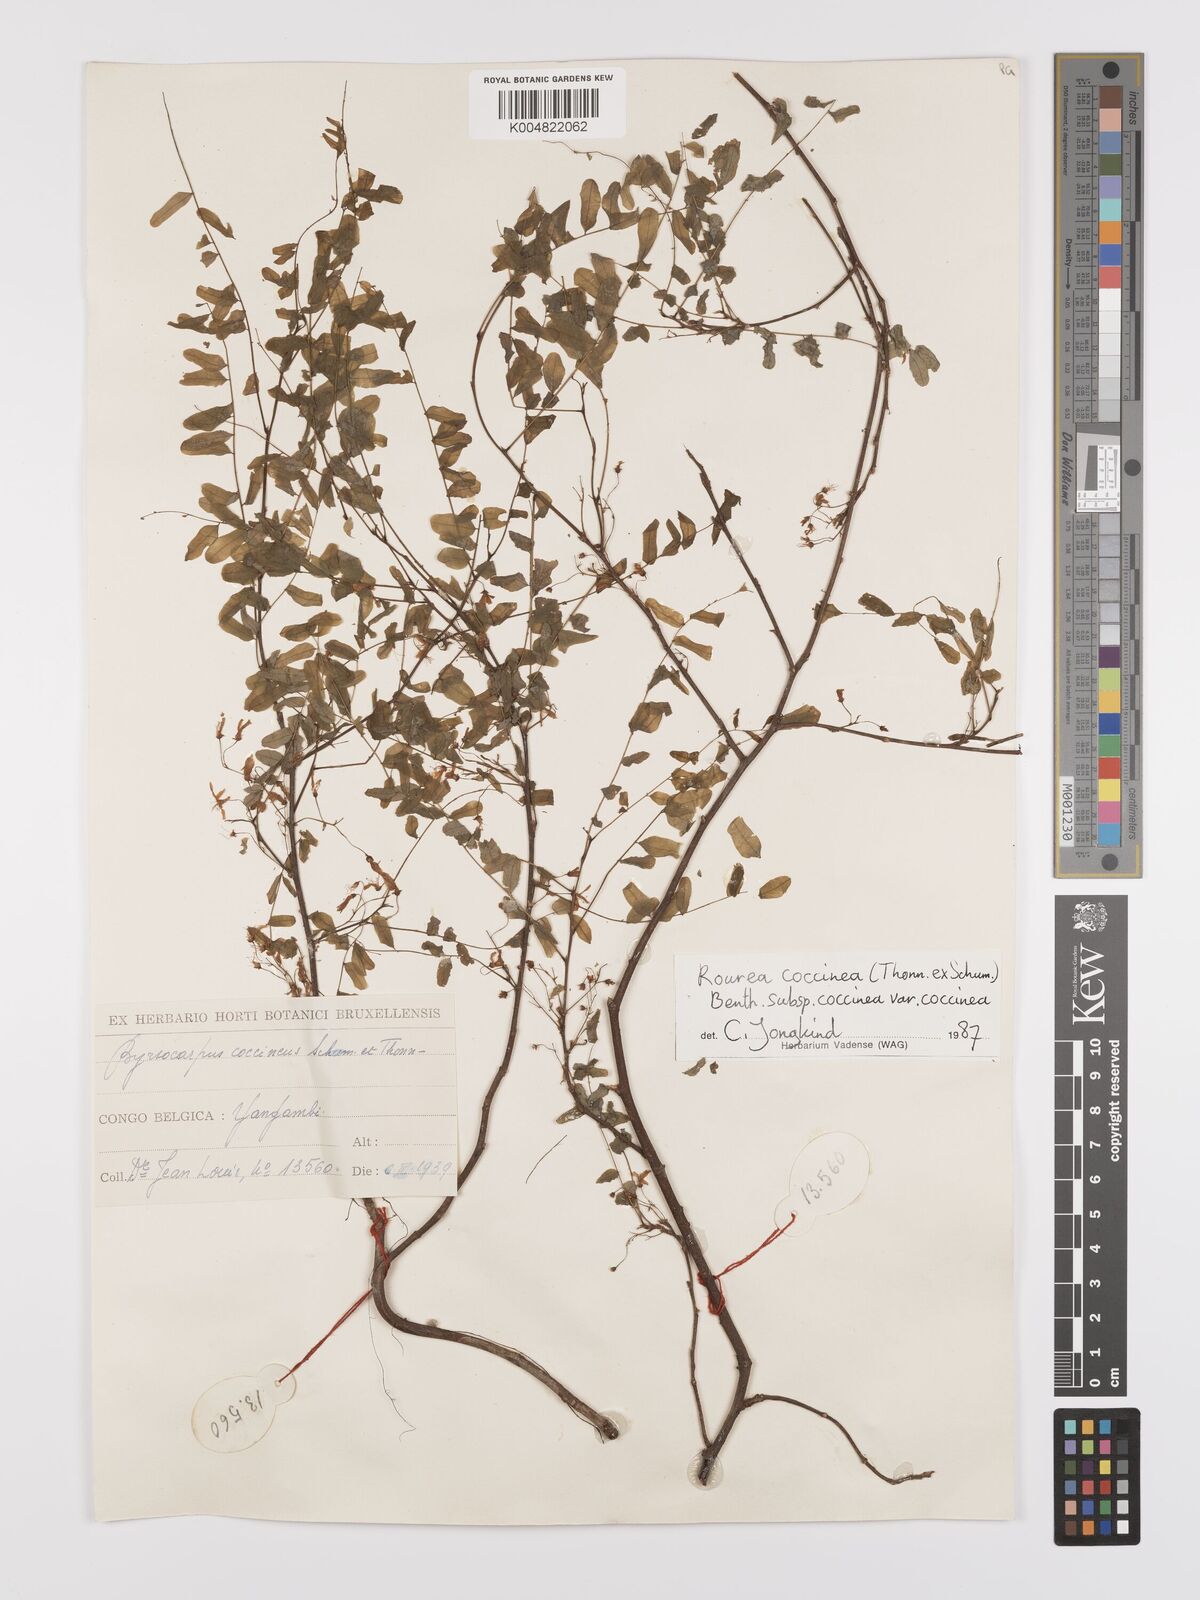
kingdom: Plantae
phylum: Tracheophyta
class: Magnoliopsida
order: Oxalidales
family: Connaraceae
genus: Rourea
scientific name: Rourea coccinea
